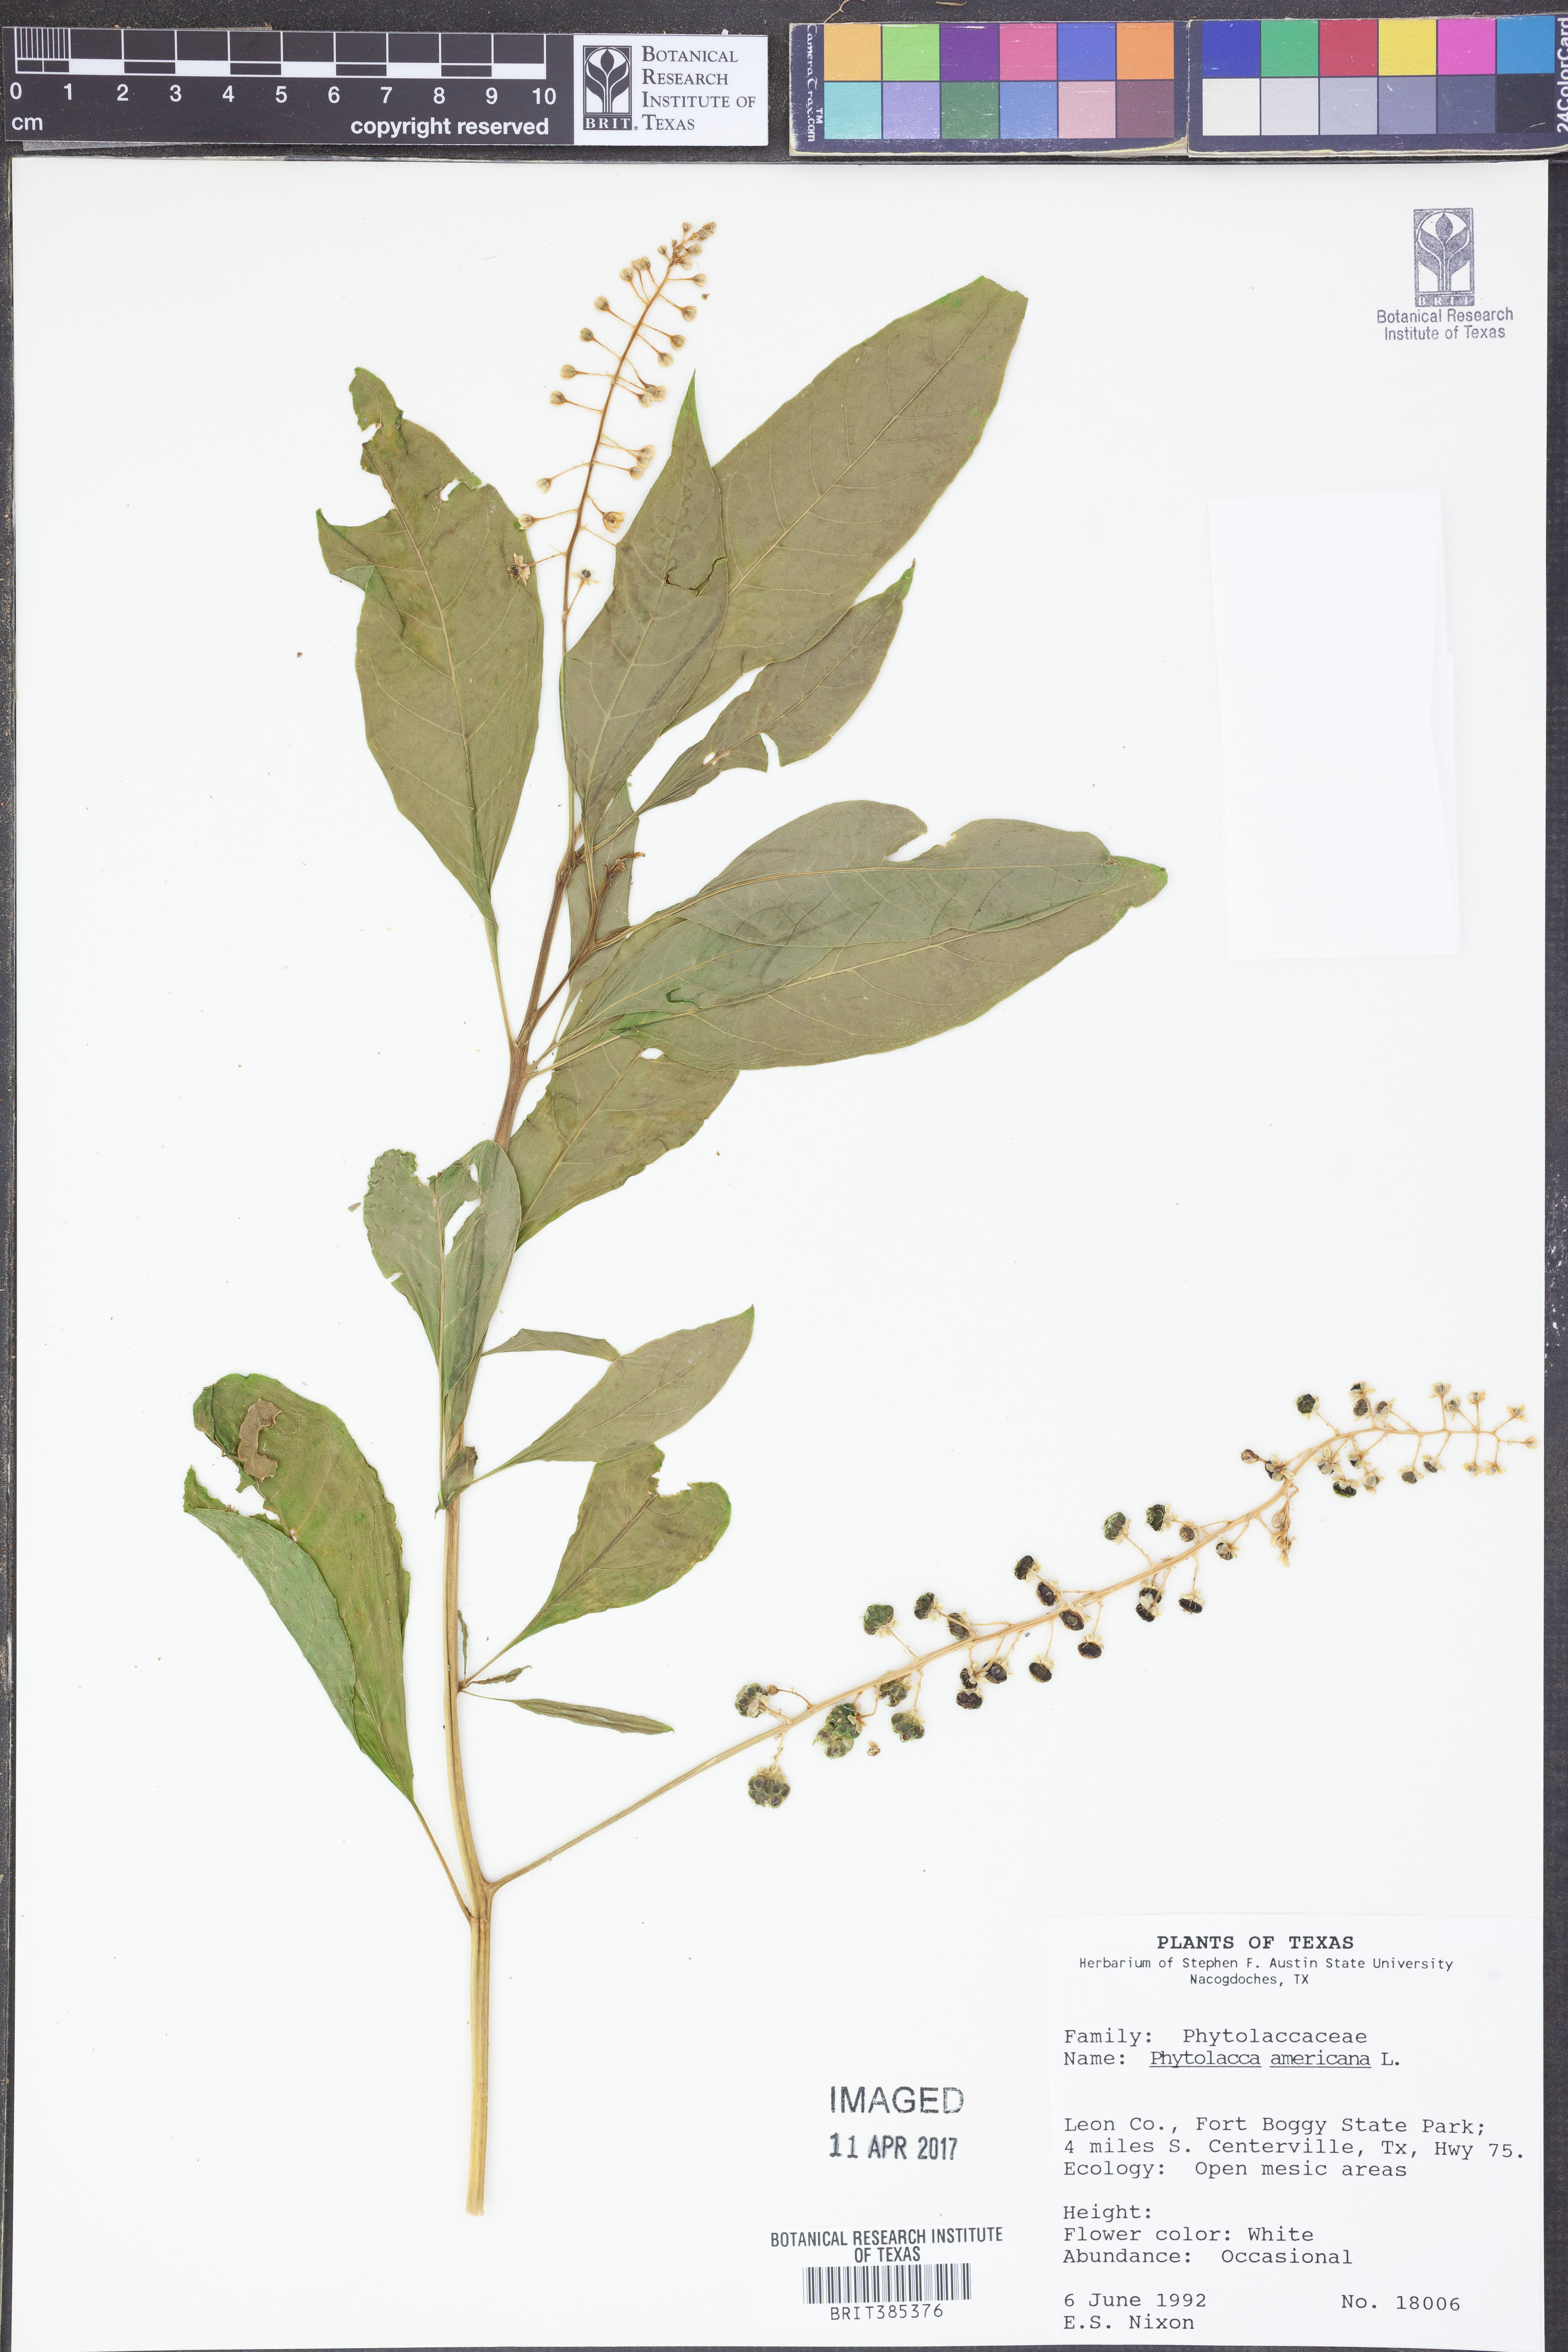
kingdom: Plantae
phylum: Tracheophyta
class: Magnoliopsida
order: Caryophyllales
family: Phytolaccaceae
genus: Phytolacca
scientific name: Phytolacca americana
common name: American pokeweed
